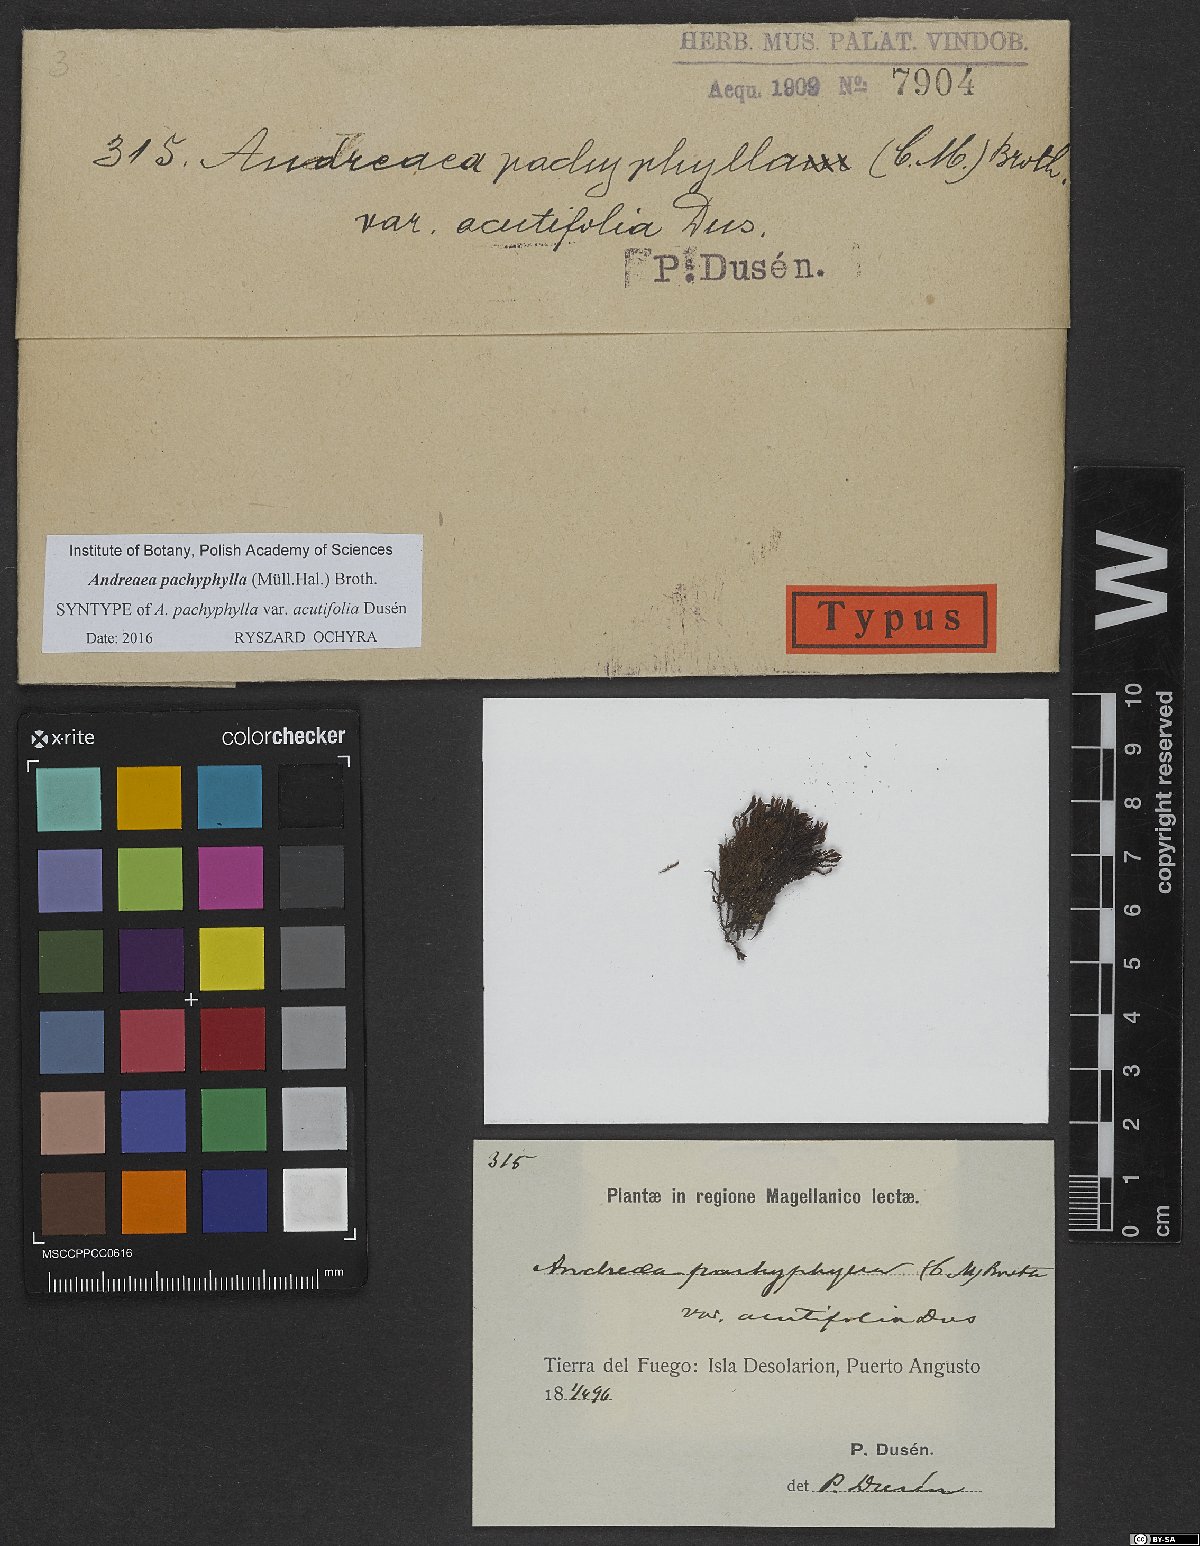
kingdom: Plantae
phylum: Bryophyta
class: Andreaeopsida
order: Andreaeales
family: Andreaeaceae
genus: Andreaea
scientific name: Andreaea pachyphylla
